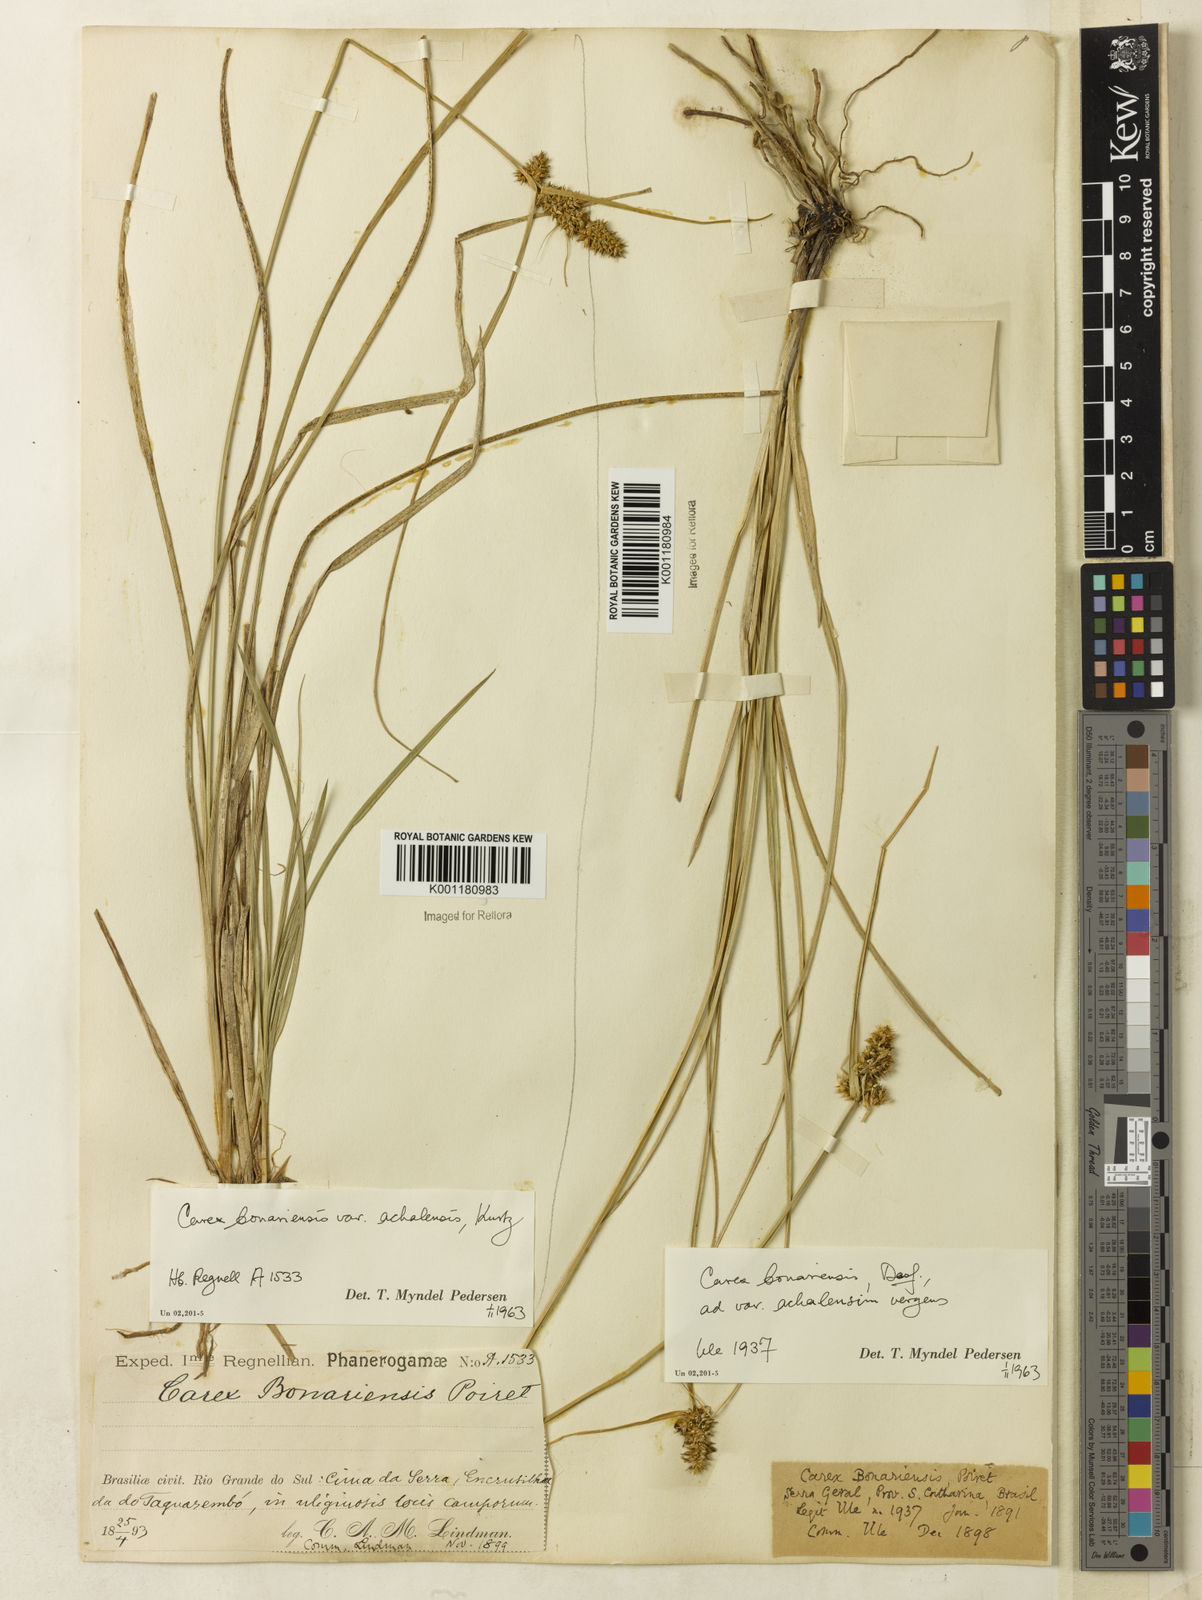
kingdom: Plantae
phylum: Tracheophyta
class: Liliopsida
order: Poales
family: Cyperaceae
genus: Carex
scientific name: Carex bonariensis
